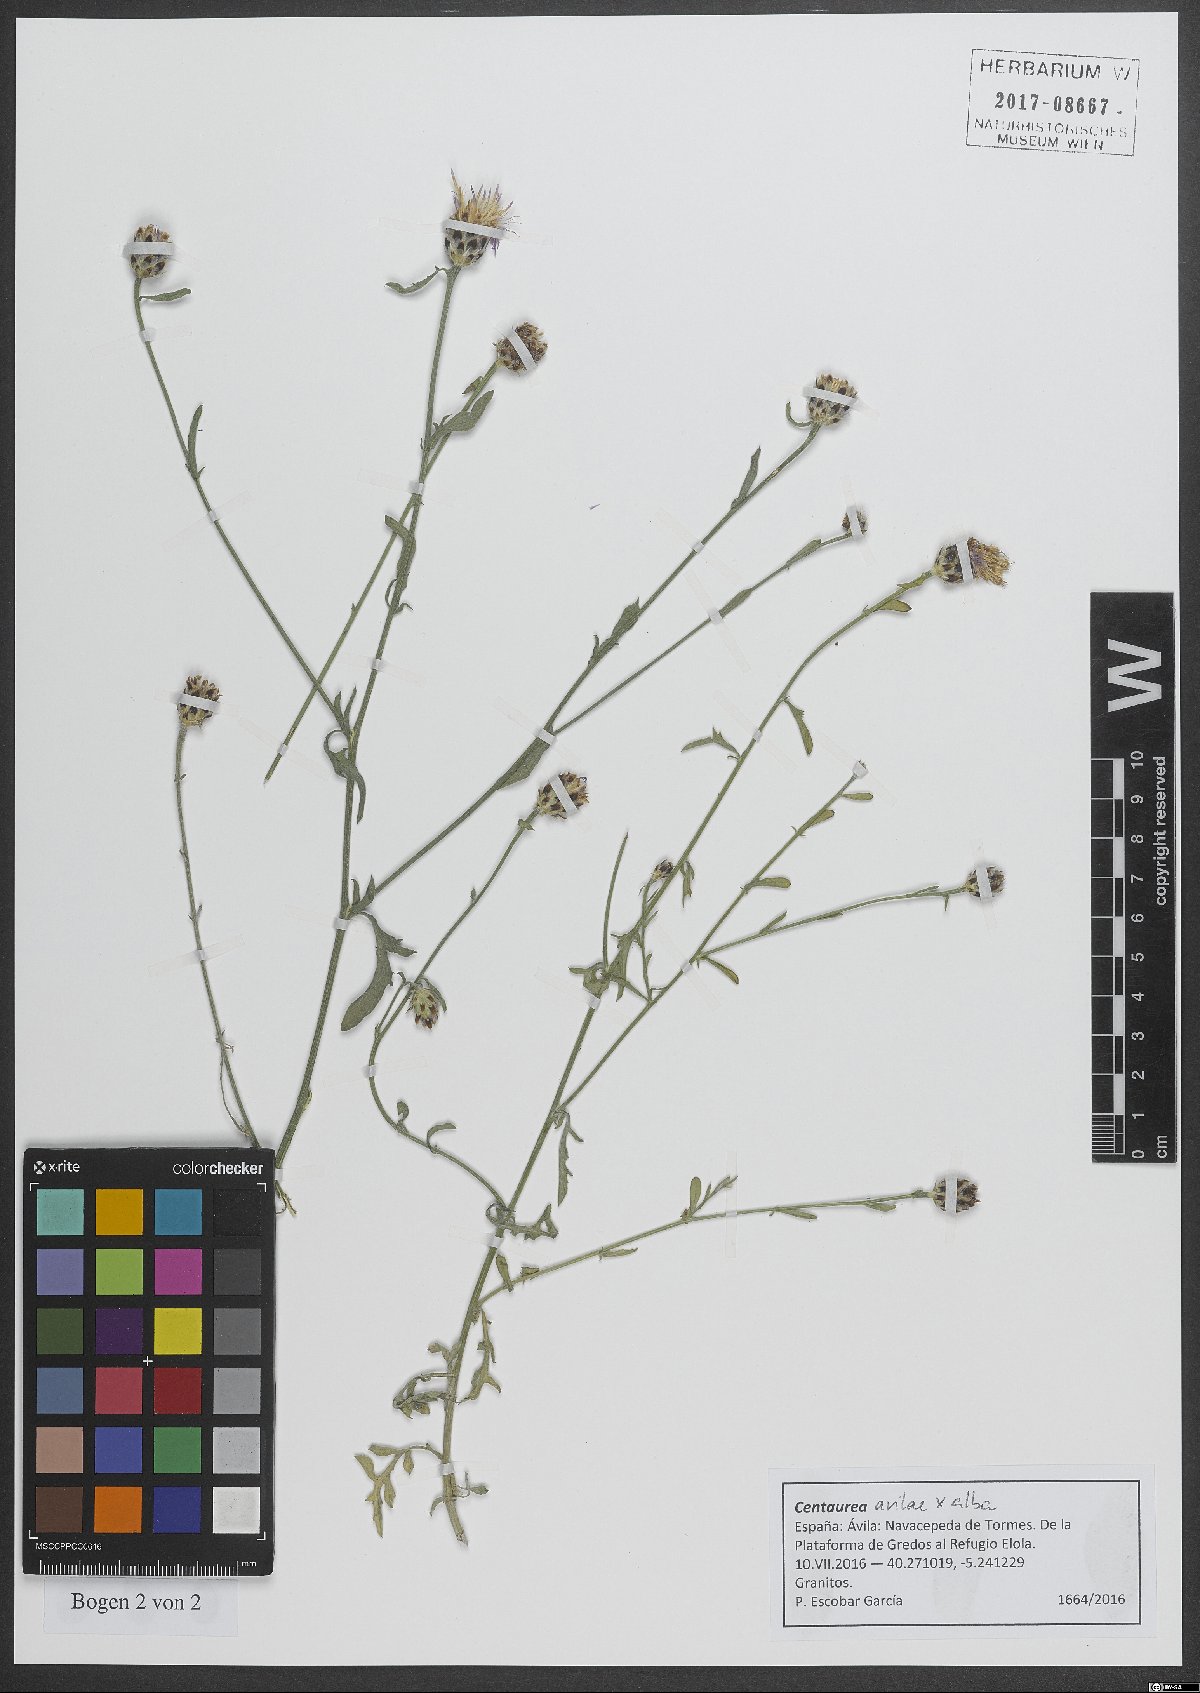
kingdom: Plantae
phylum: Tracheophyta
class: Magnoliopsida
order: Asterales
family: Asteraceae
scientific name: Asteraceae
